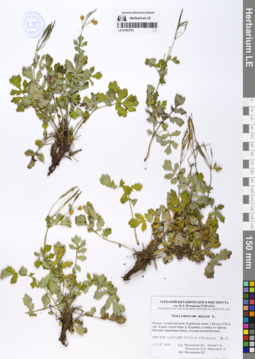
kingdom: Plantae
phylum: Tracheophyta
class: Magnoliopsida
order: Ranunculales
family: Papaveraceae
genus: Chelidonium
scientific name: Chelidonium majus
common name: Greater celandine
